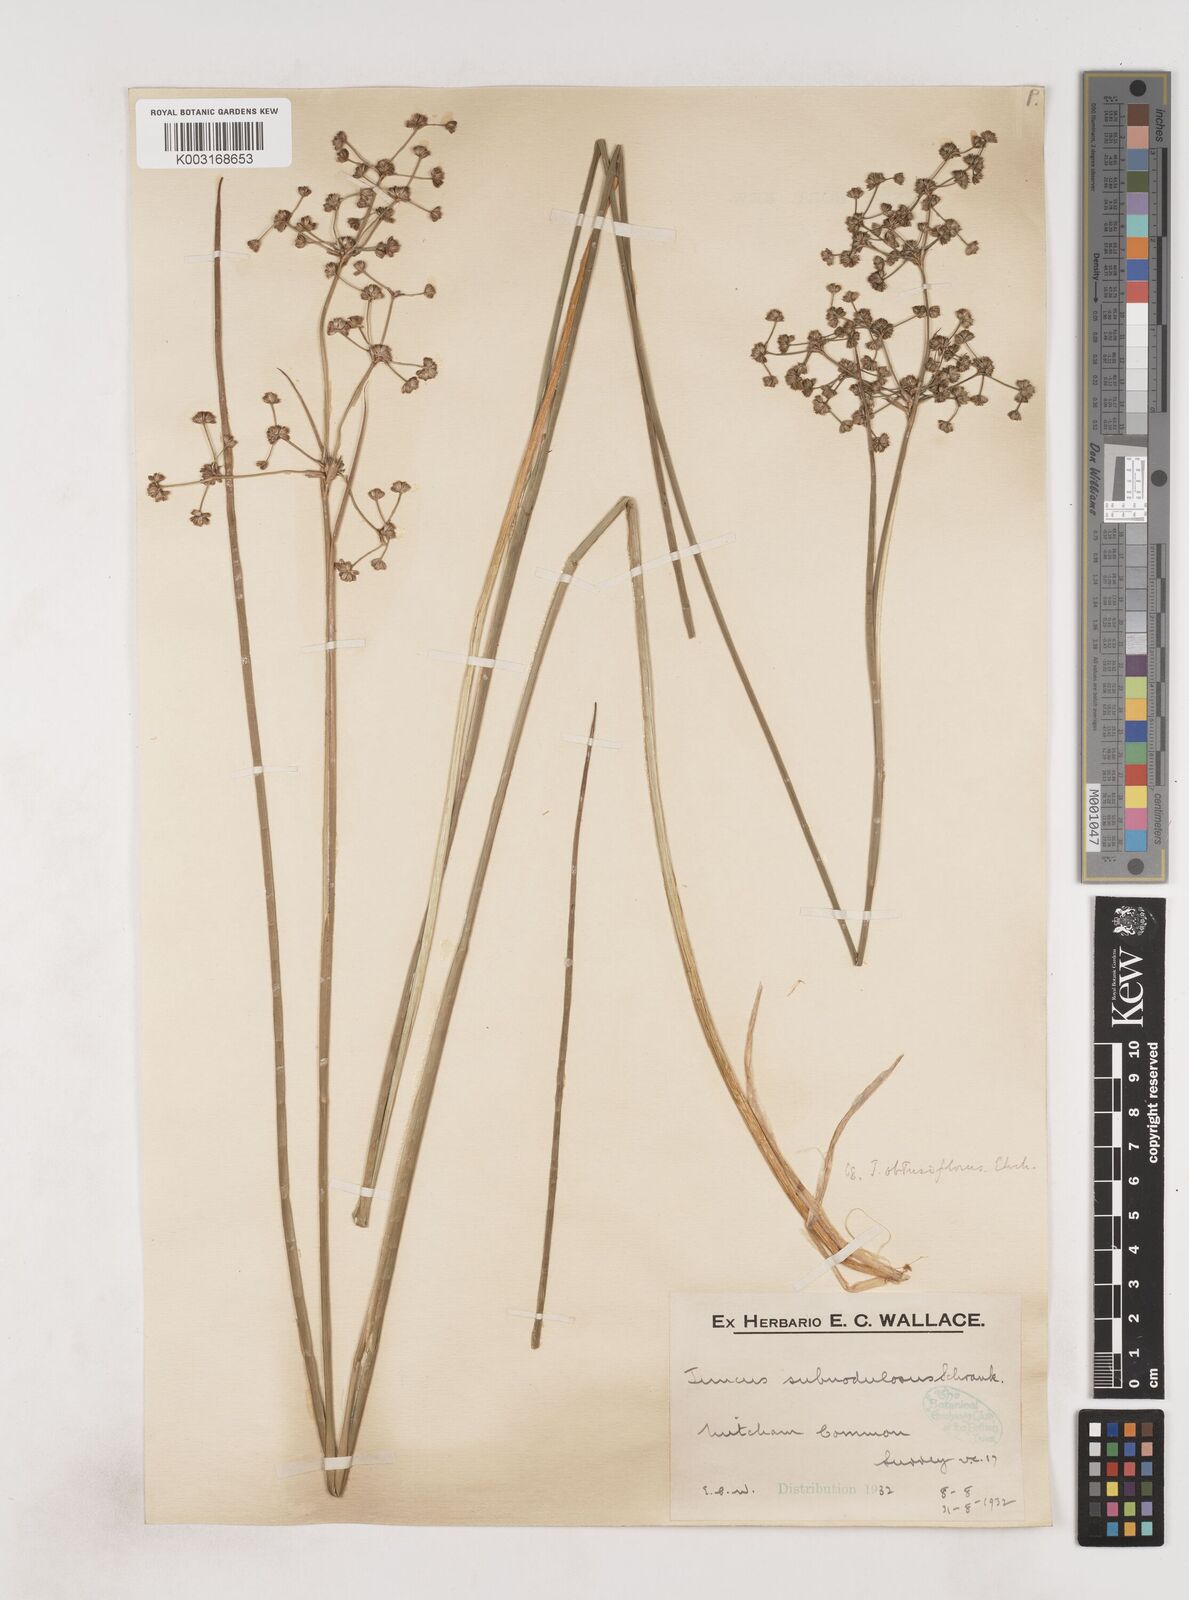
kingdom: Plantae
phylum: Tracheophyta
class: Liliopsida
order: Poales
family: Juncaceae
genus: Juncus
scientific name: Juncus subnodulosus
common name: Blunt-flowered rush
